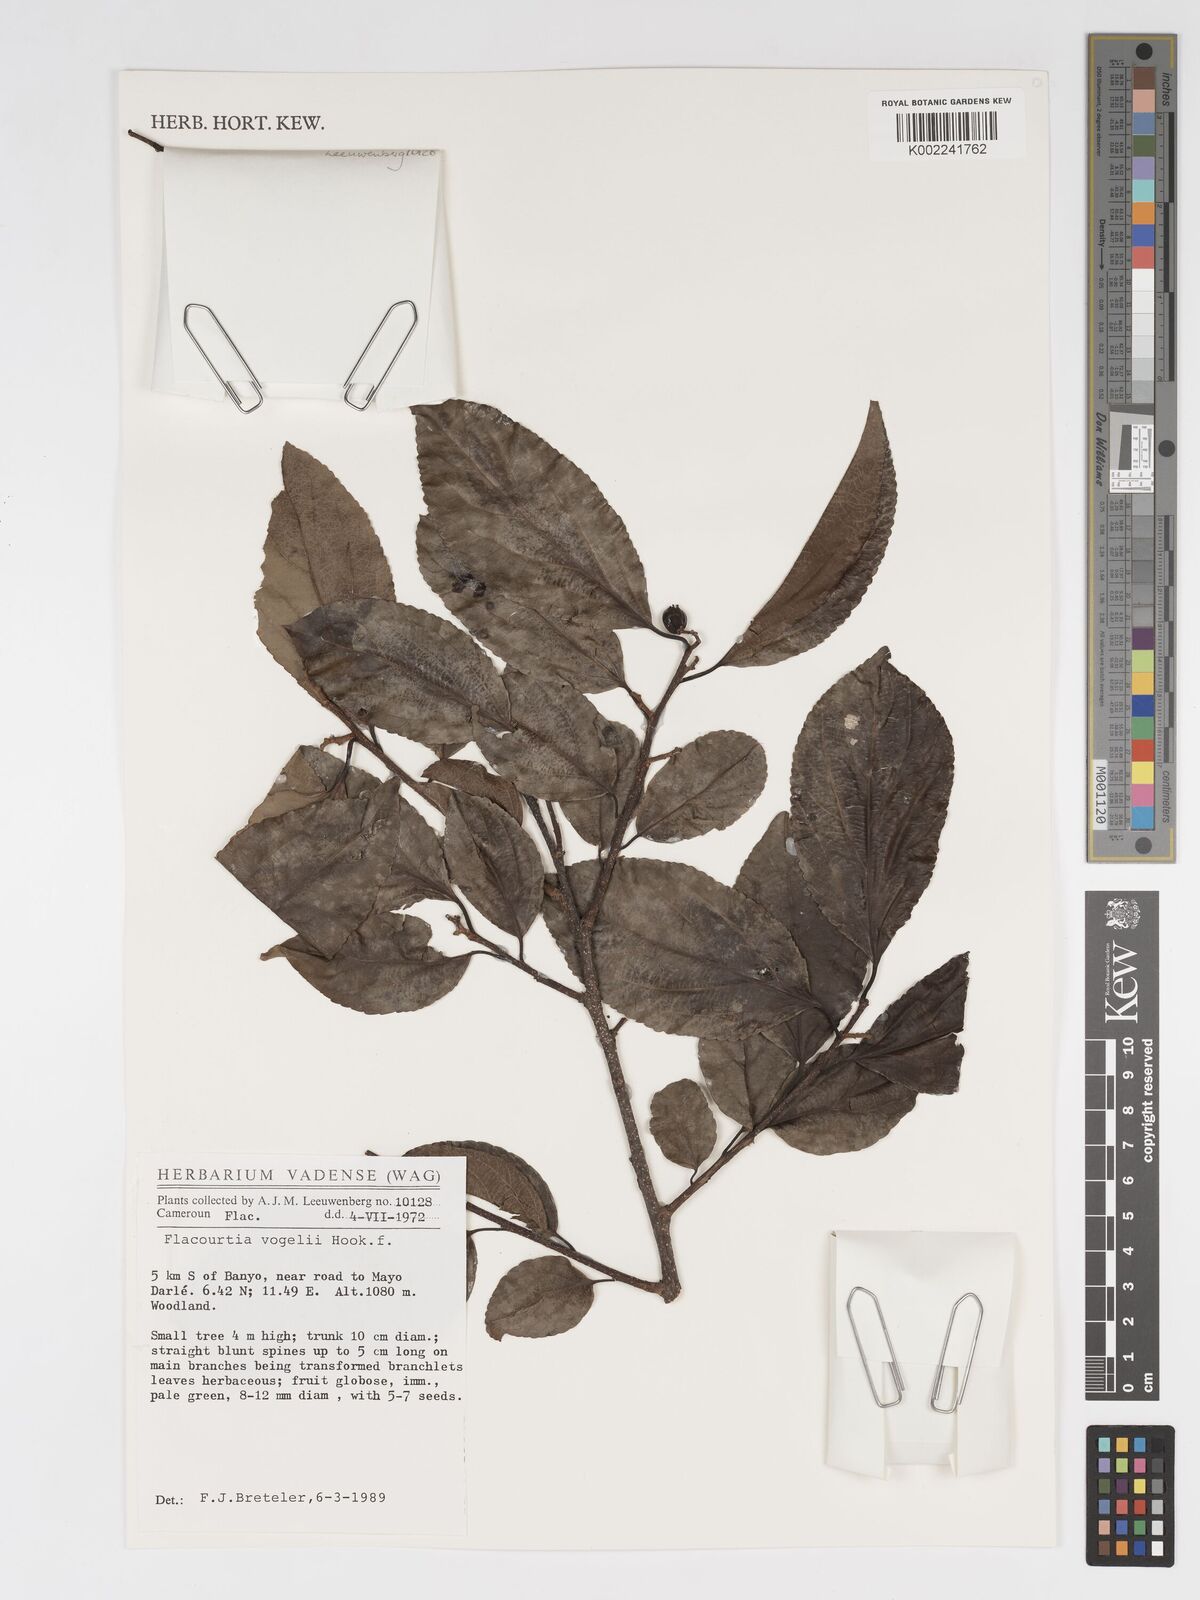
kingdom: Plantae
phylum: Tracheophyta
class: Magnoliopsida
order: Malpighiales
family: Salicaceae
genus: Flacourtia
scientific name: Flacourtia vogelii
